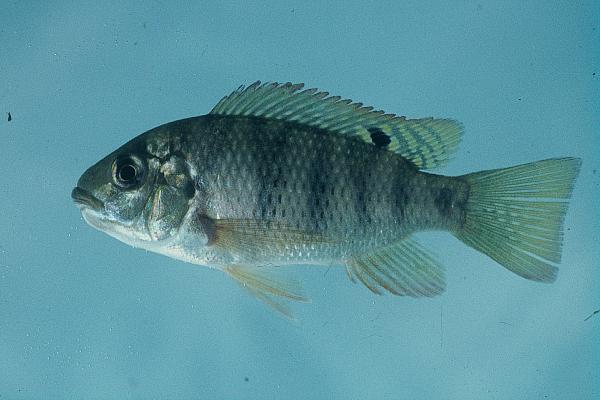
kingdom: Animalia
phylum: Chordata
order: Perciformes
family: Cichlidae
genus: Coptodon
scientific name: Coptodon rendalli
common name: Redbreast tilapia
